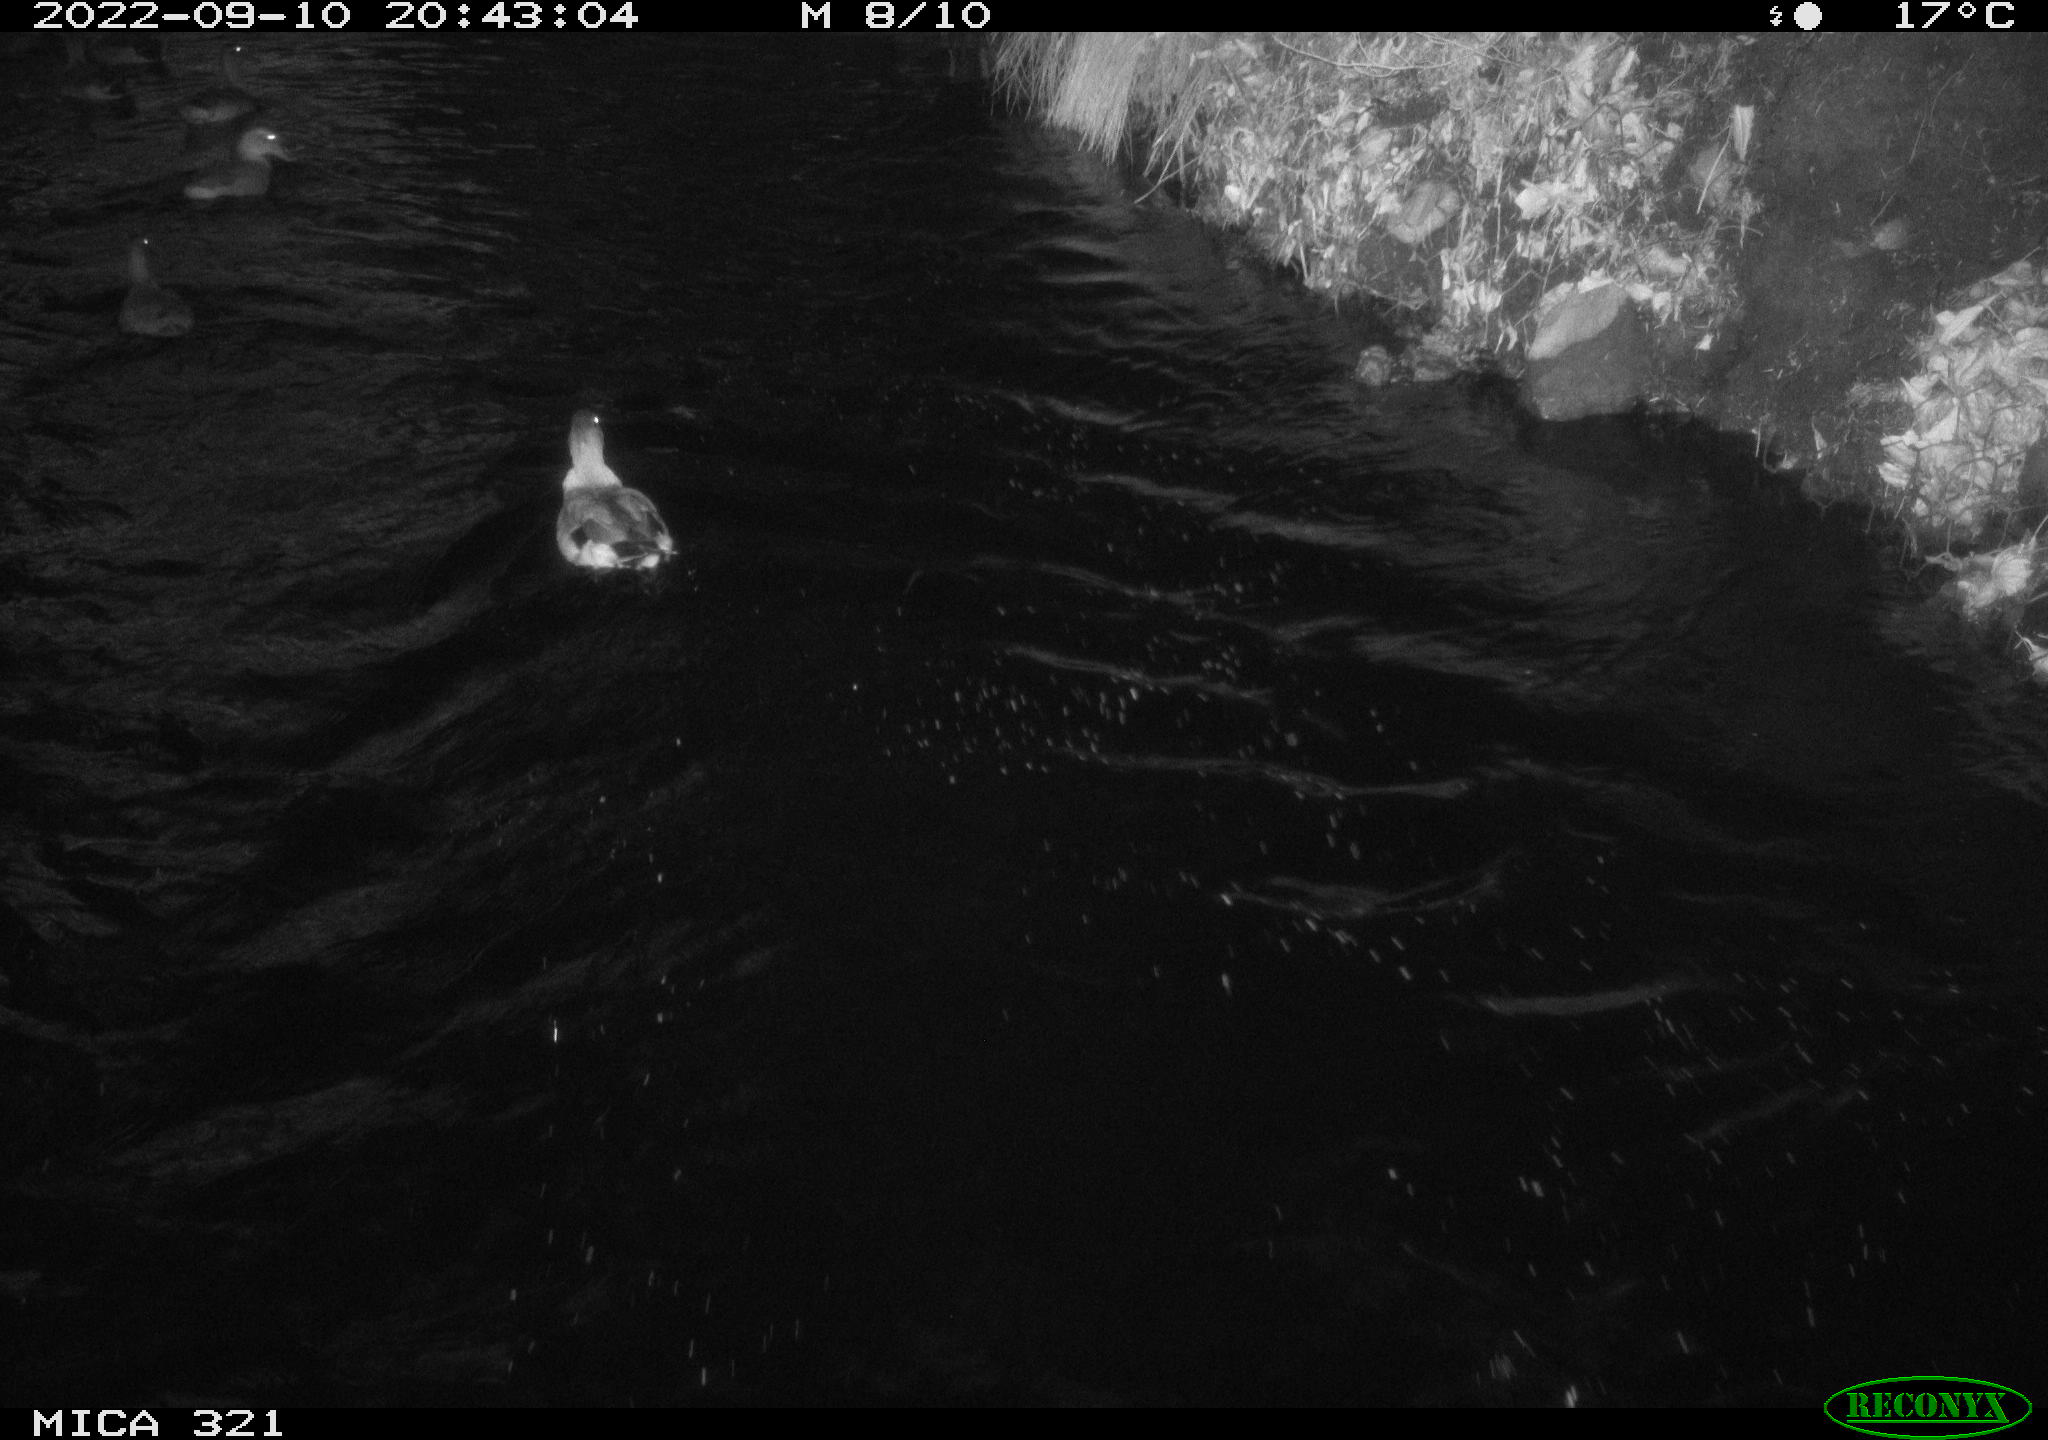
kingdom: Animalia
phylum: Chordata
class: Aves
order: Anseriformes
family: Anatidae
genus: Anas
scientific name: Anas
